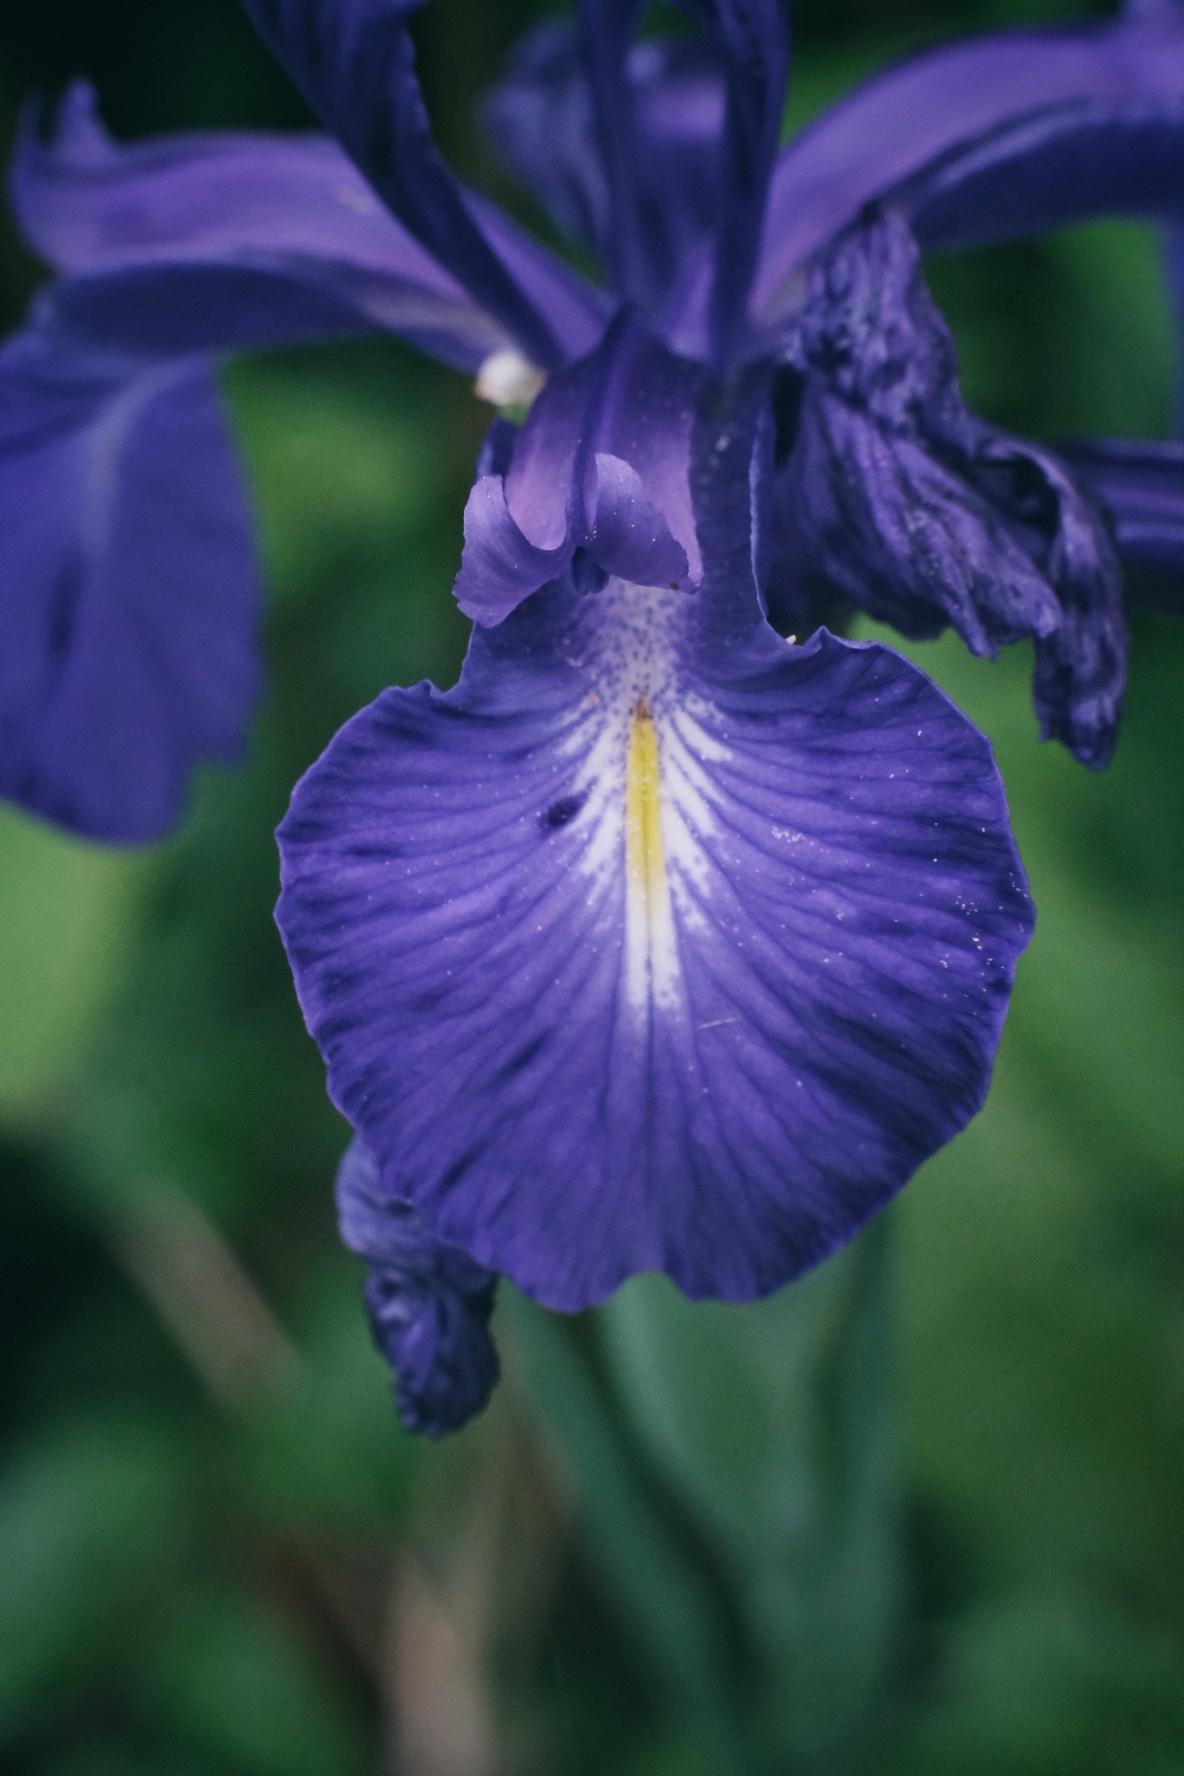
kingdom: Plantae
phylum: Tracheophyta
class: Liliopsida
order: Asparagales
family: Iridaceae
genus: Iris
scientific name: Iris
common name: Irisslægten
